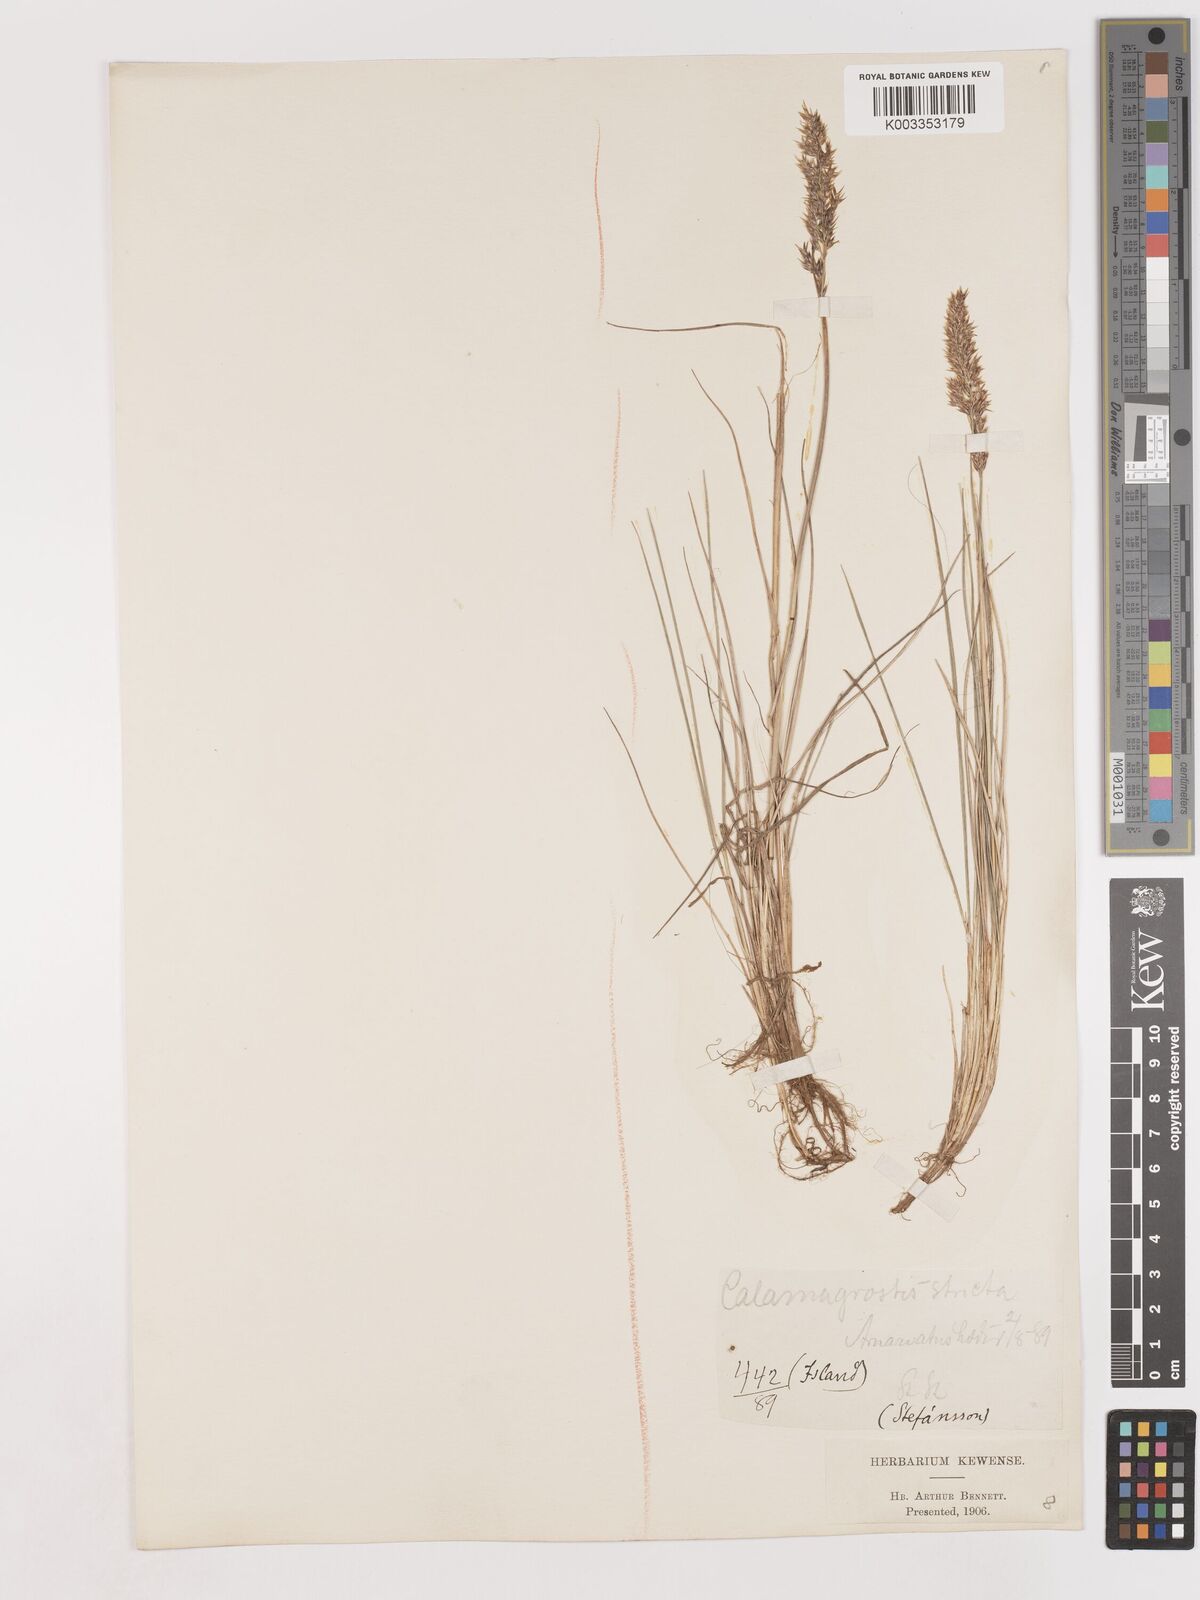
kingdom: Plantae
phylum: Tracheophyta
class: Liliopsida
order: Poales
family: Poaceae
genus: Cinnagrostis
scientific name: Cinnagrostis recta
